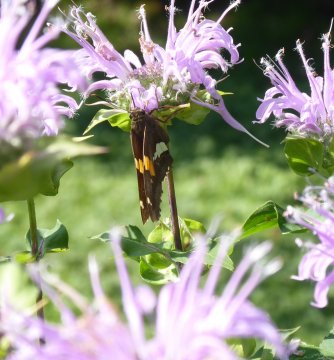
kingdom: Animalia
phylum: Arthropoda
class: Insecta
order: Lepidoptera
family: Hesperiidae
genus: Epargyreus
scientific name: Epargyreus clarus
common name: Silver-spotted Skipper
